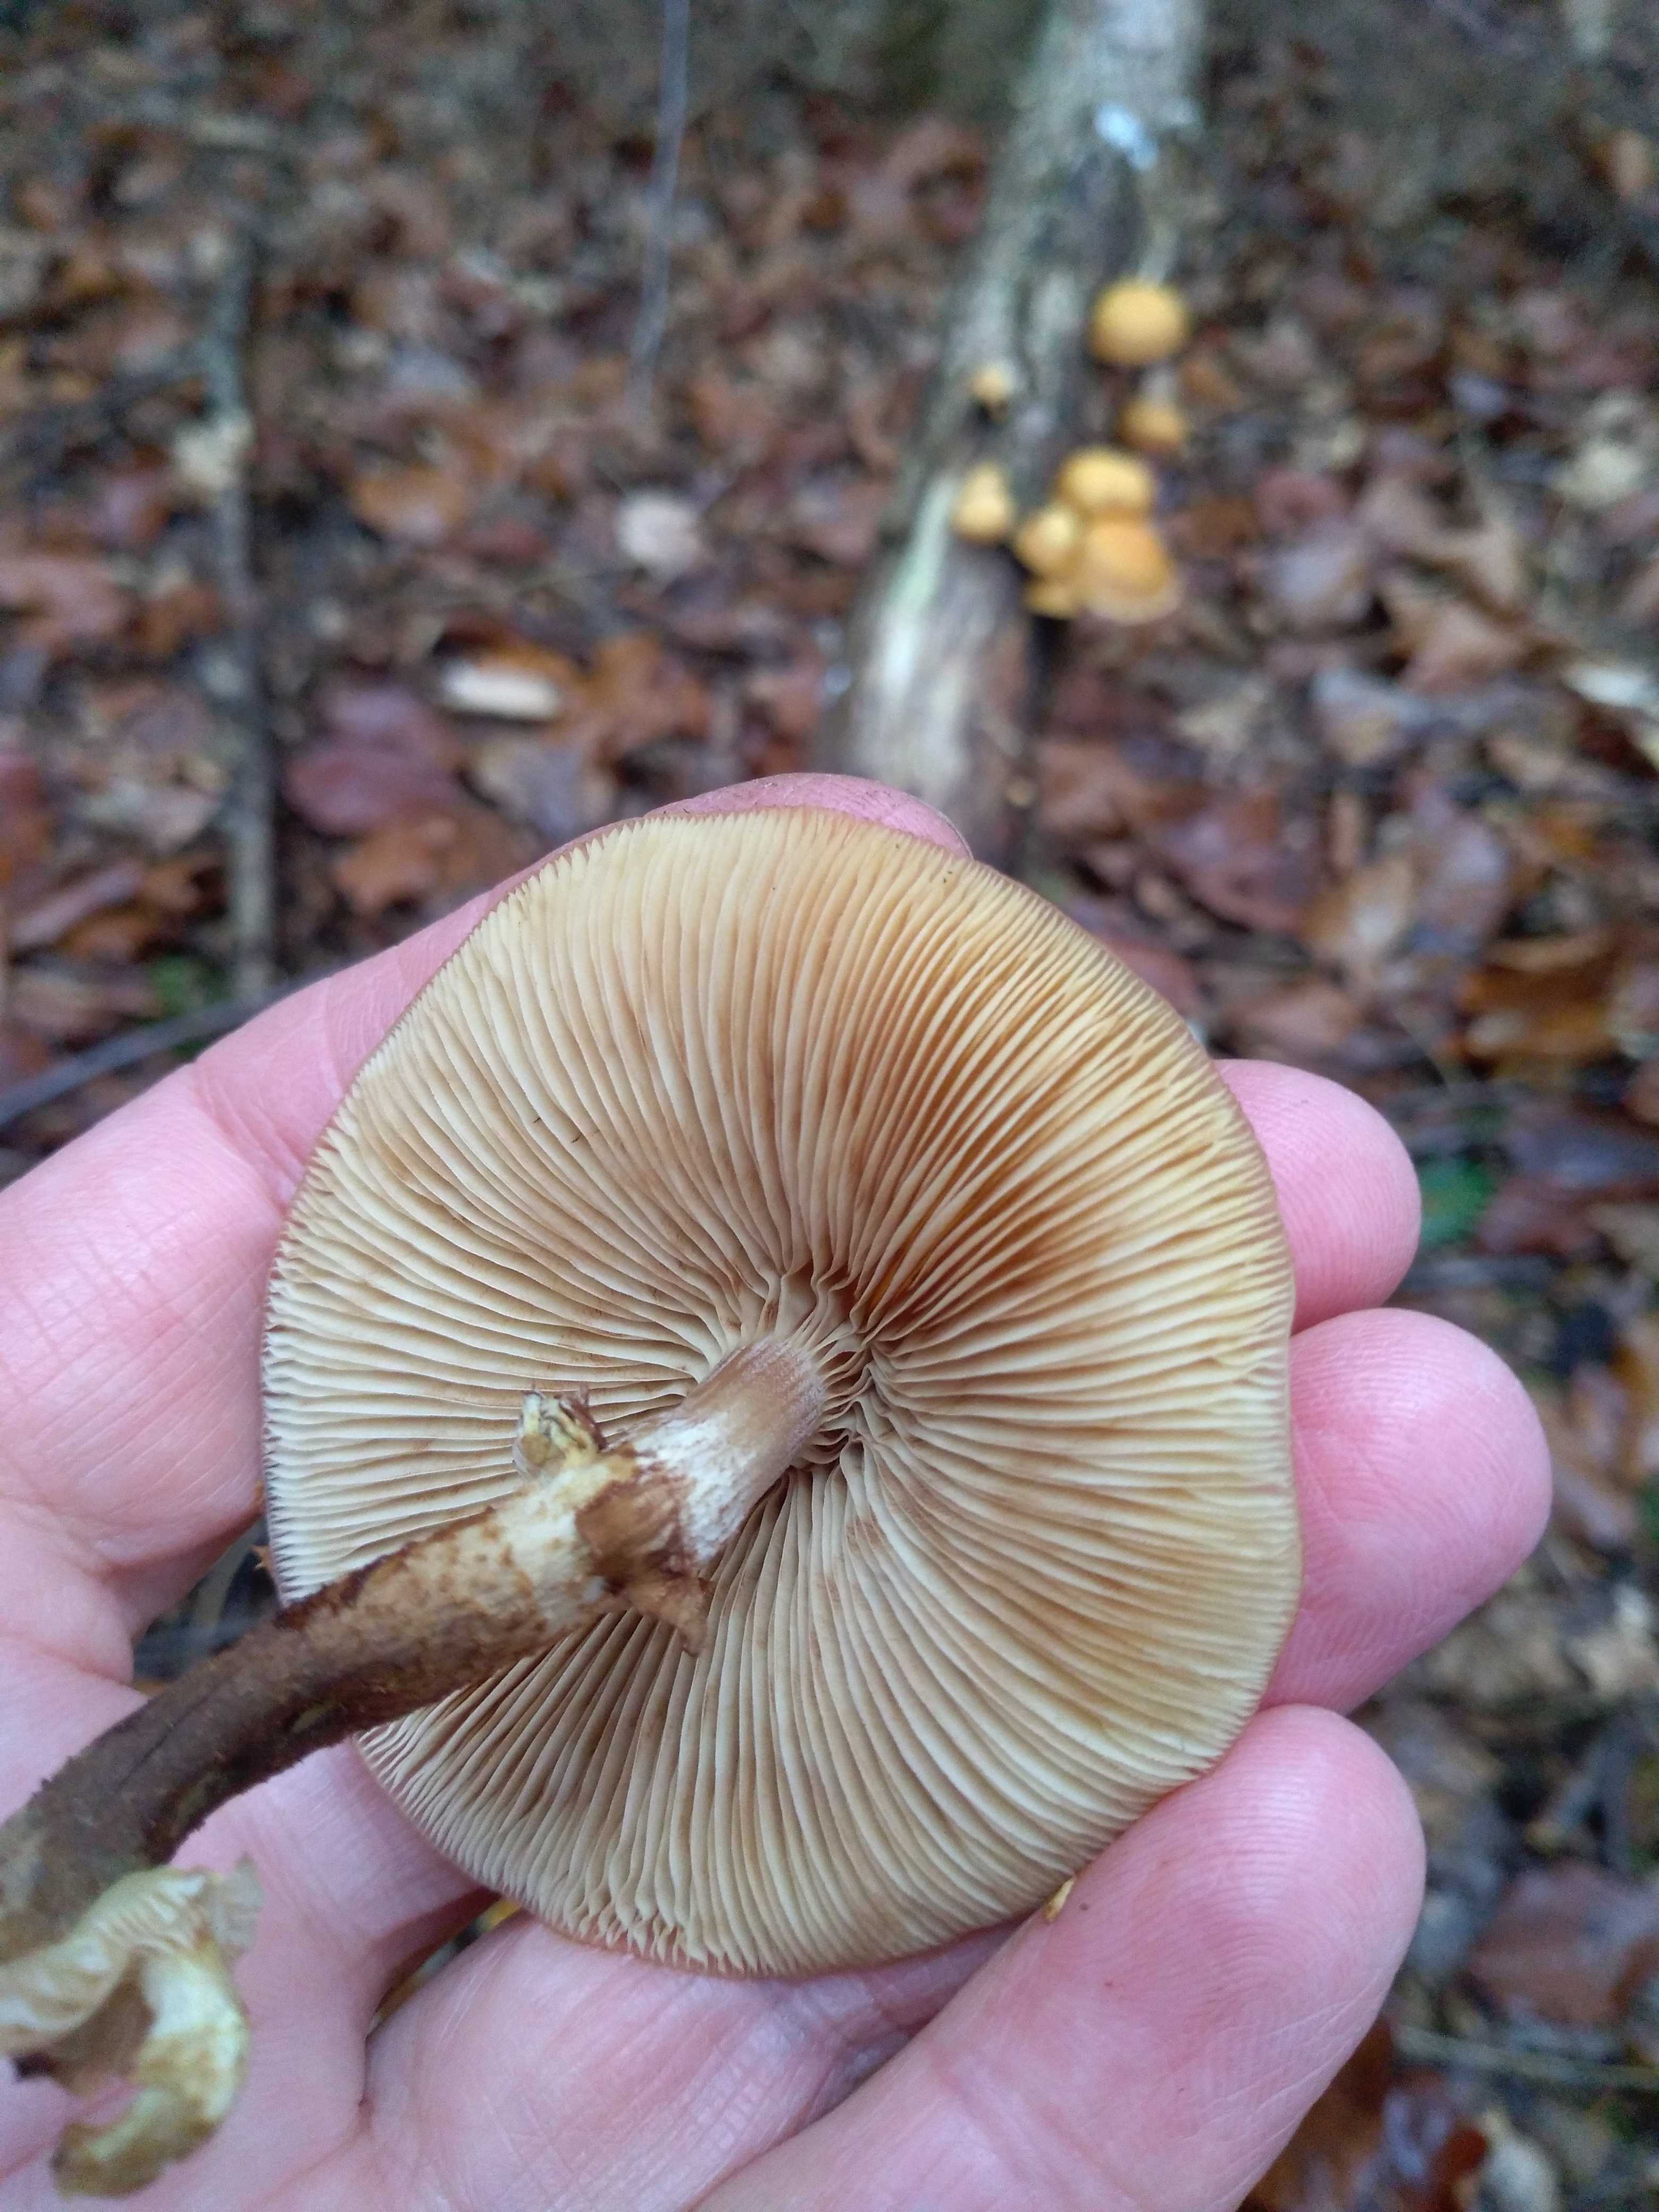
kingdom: Fungi
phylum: Basidiomycota
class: Agaricomycetes
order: Agaricales
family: Strophariaceae
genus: Kuehneromyces
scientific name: Kuehneromyces mutabilis
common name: foranderlig skælhat
